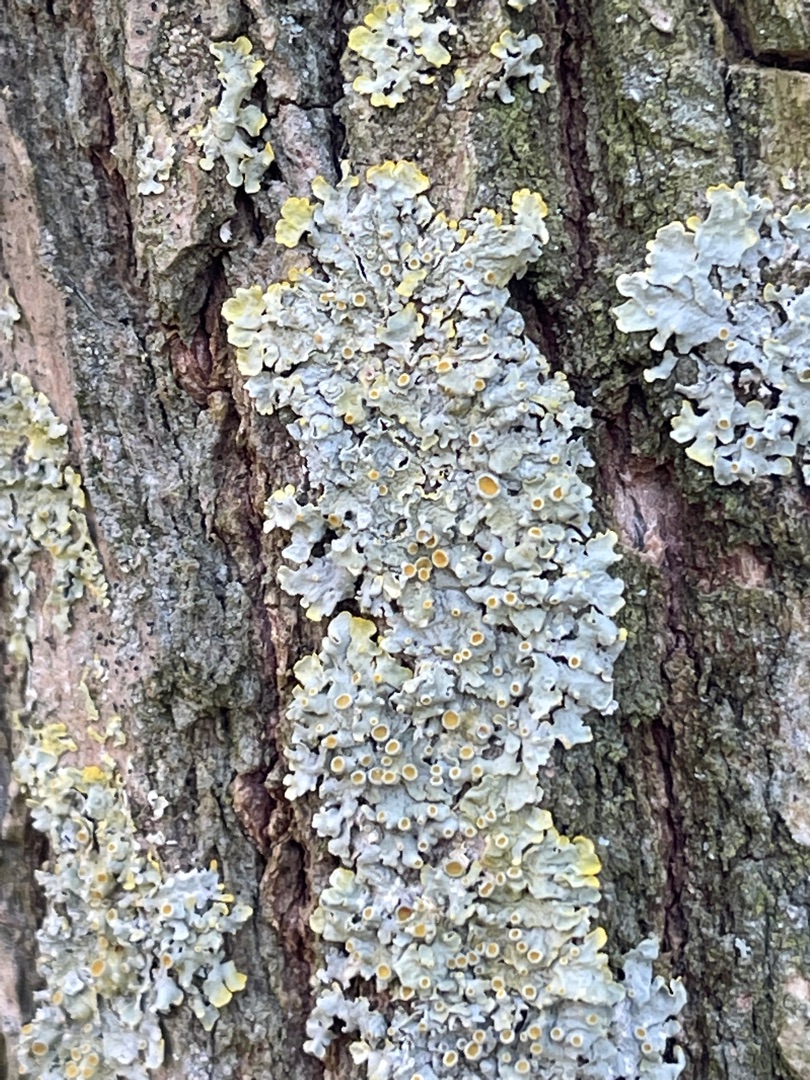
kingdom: Fungi
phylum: Ascomycota
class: Lecanoromycetes
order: Teloschistales
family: Teloschistaceae
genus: Xanthoria
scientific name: Xanthoria parietina
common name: Almindelig væggelav
